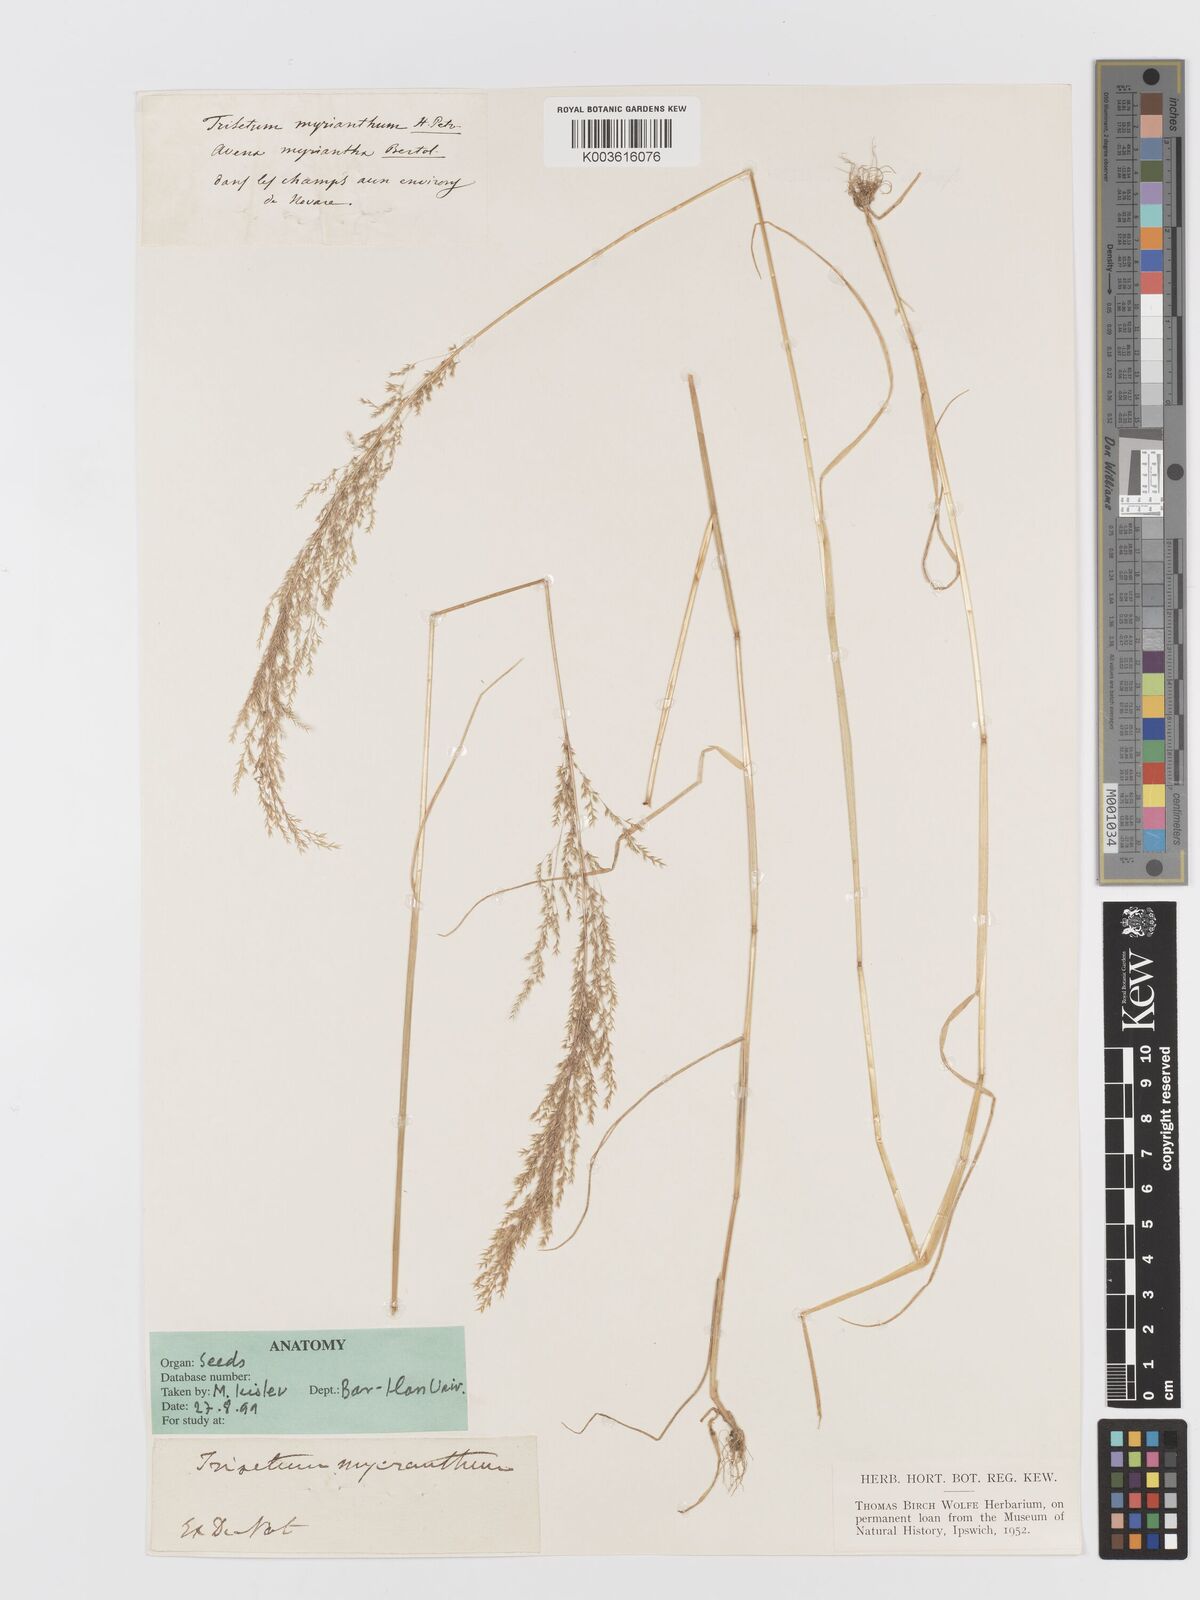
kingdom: Plantae
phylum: Tracheophyta
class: Liliopsida
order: Poales
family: Poaceae
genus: Parvotrisetum
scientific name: Parvotrisetum myrianthum
